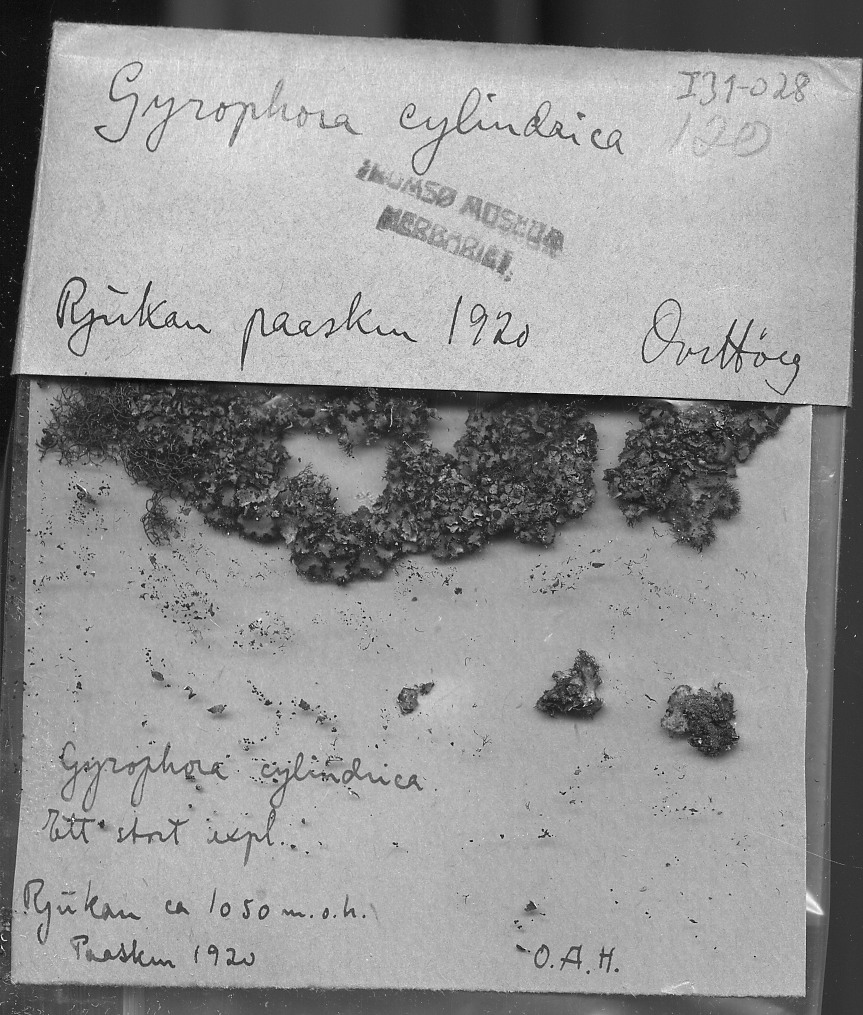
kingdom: Fungi
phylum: Ascomycota
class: Lecanoromycetes
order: Umbilicariales
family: Umbilicariaceae
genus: Umbilicaria
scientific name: Umbilicaria cylindrica
